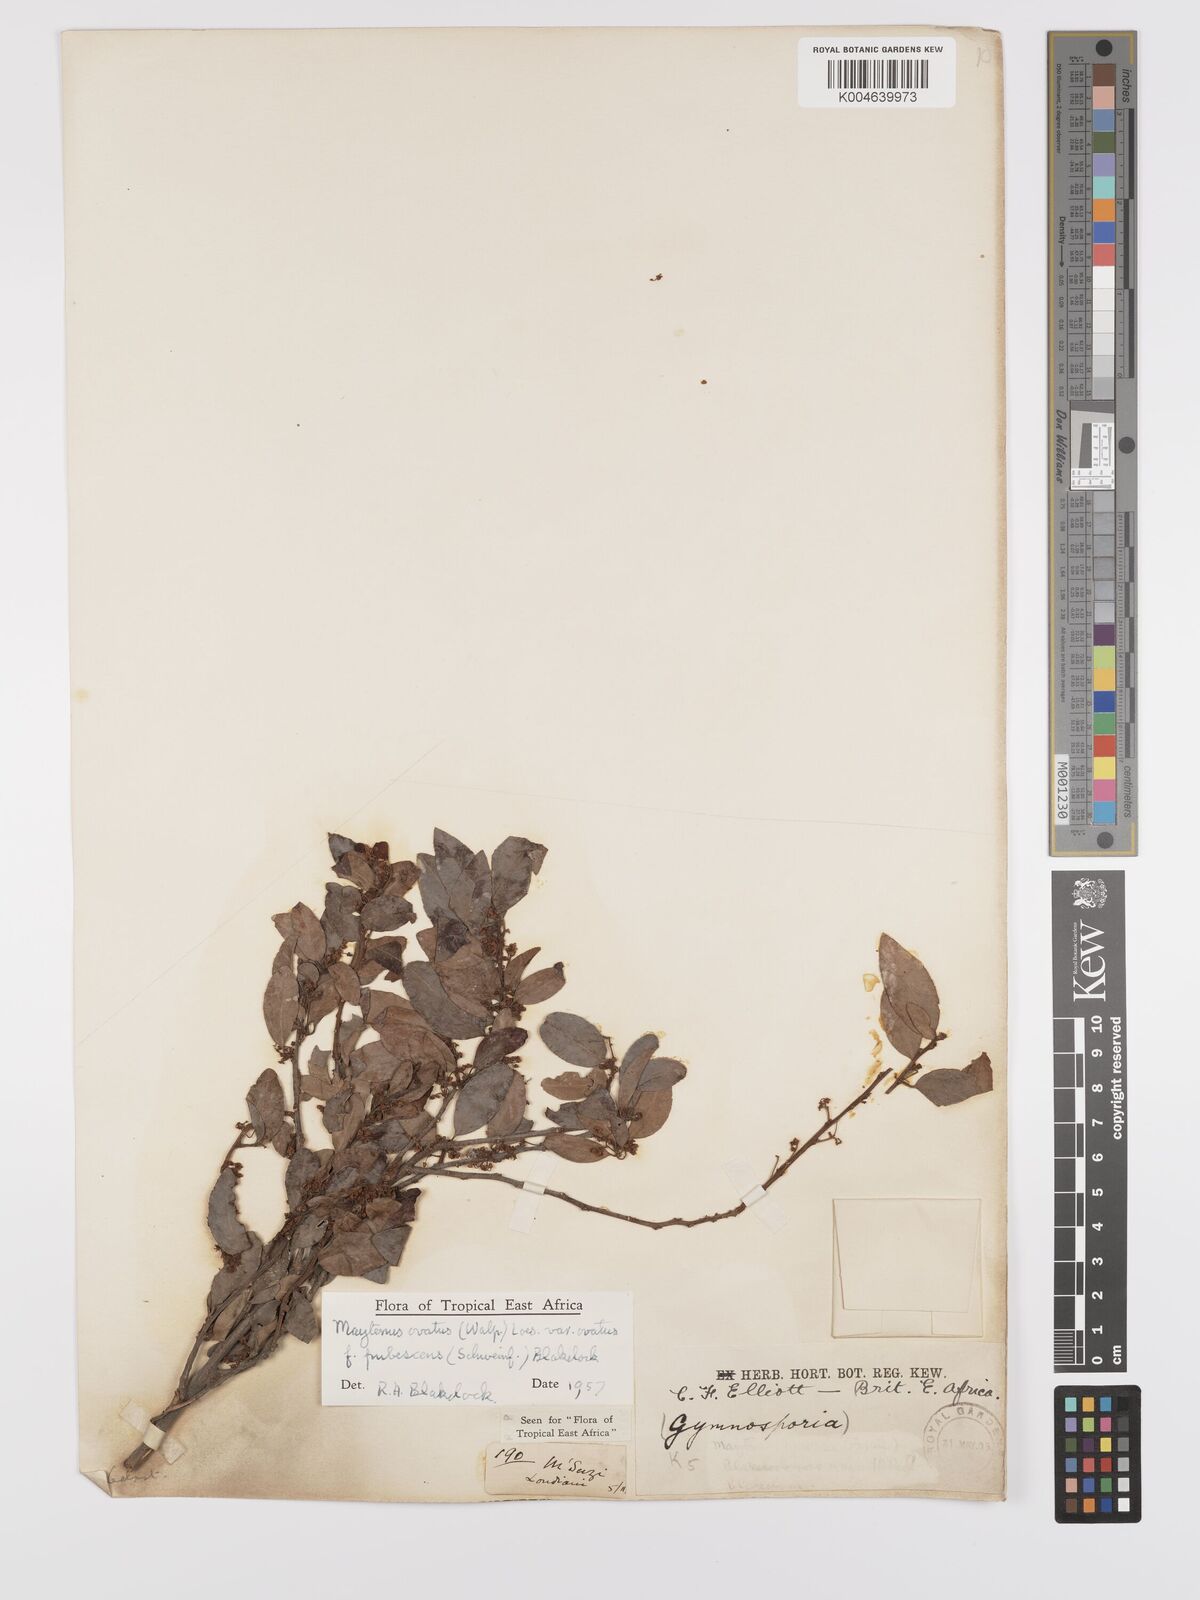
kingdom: Plantae
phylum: Tracheophyta
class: Magnoliopsida
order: Celastrales
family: Celastraceae
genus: Gymnosporia
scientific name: Gymnosporia arbutifolia
